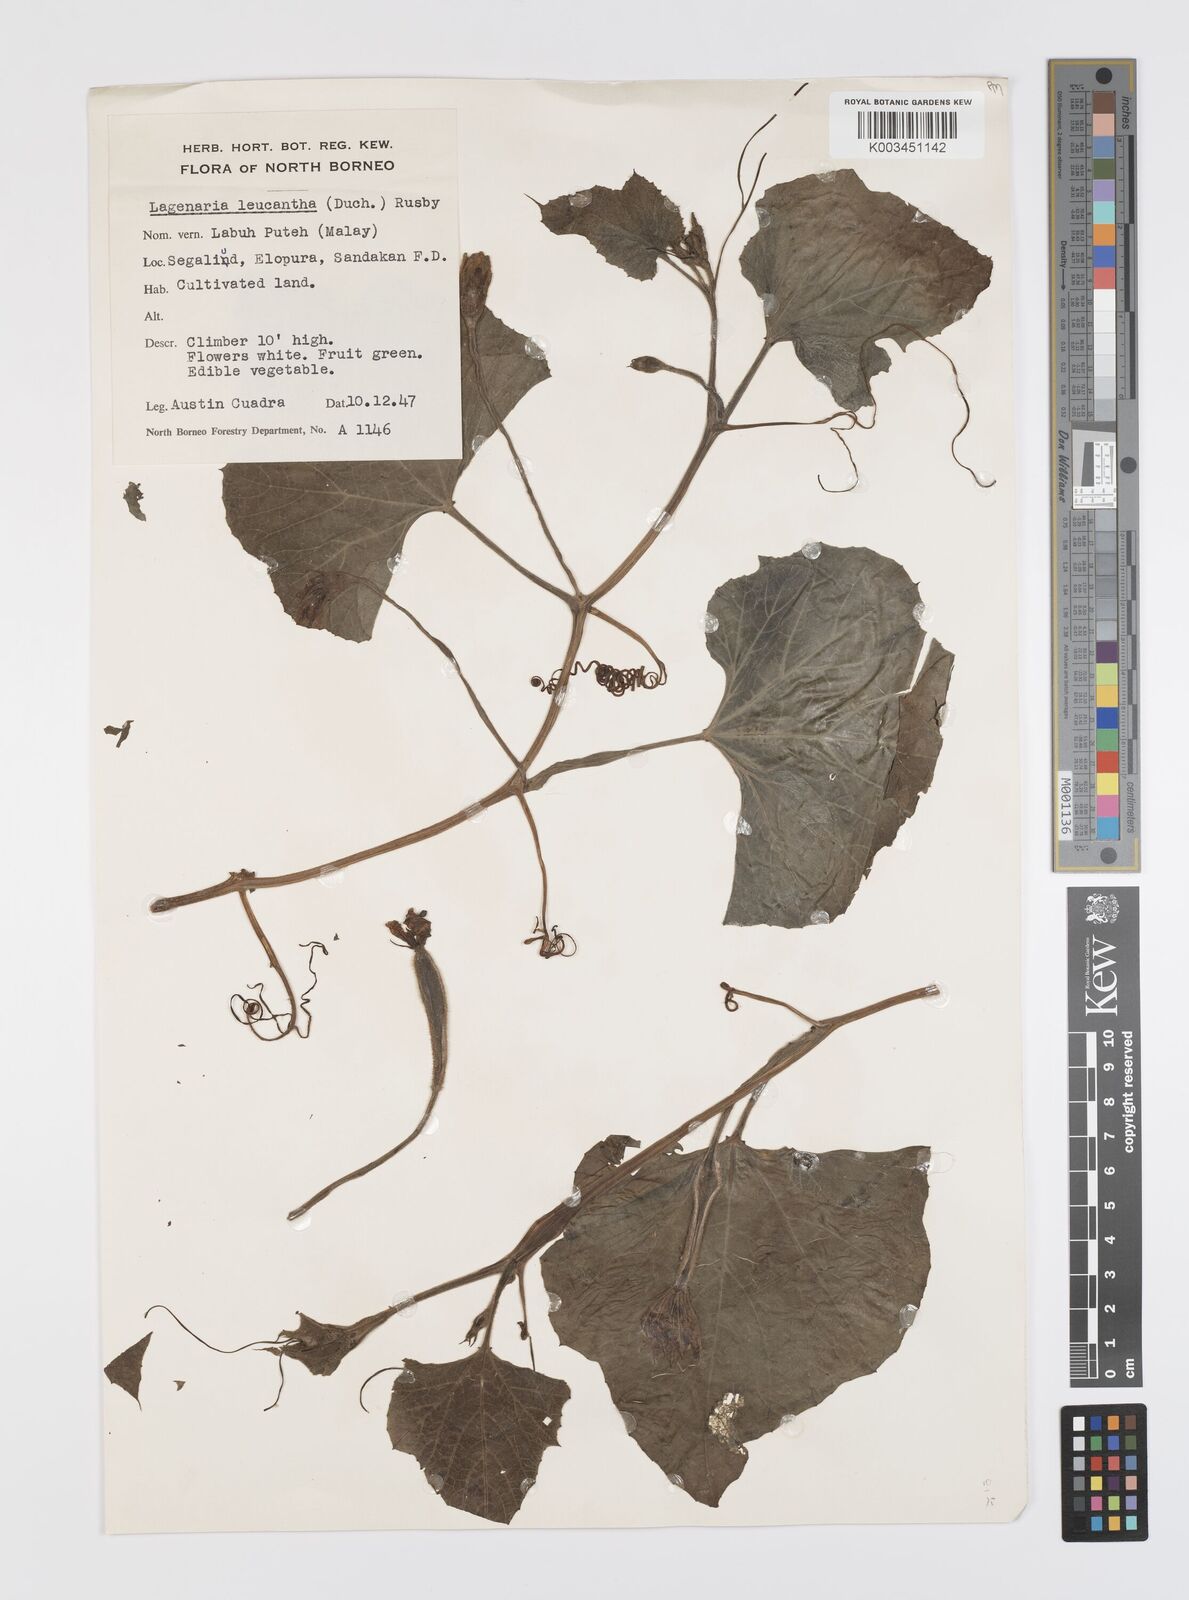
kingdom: Plantae
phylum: Tracheophyta
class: Magnoliopsida
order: Cucurbitales
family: Cucurbitaceae
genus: Lagenaria
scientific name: Lagenaria siceraria
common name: Bottle gourd
